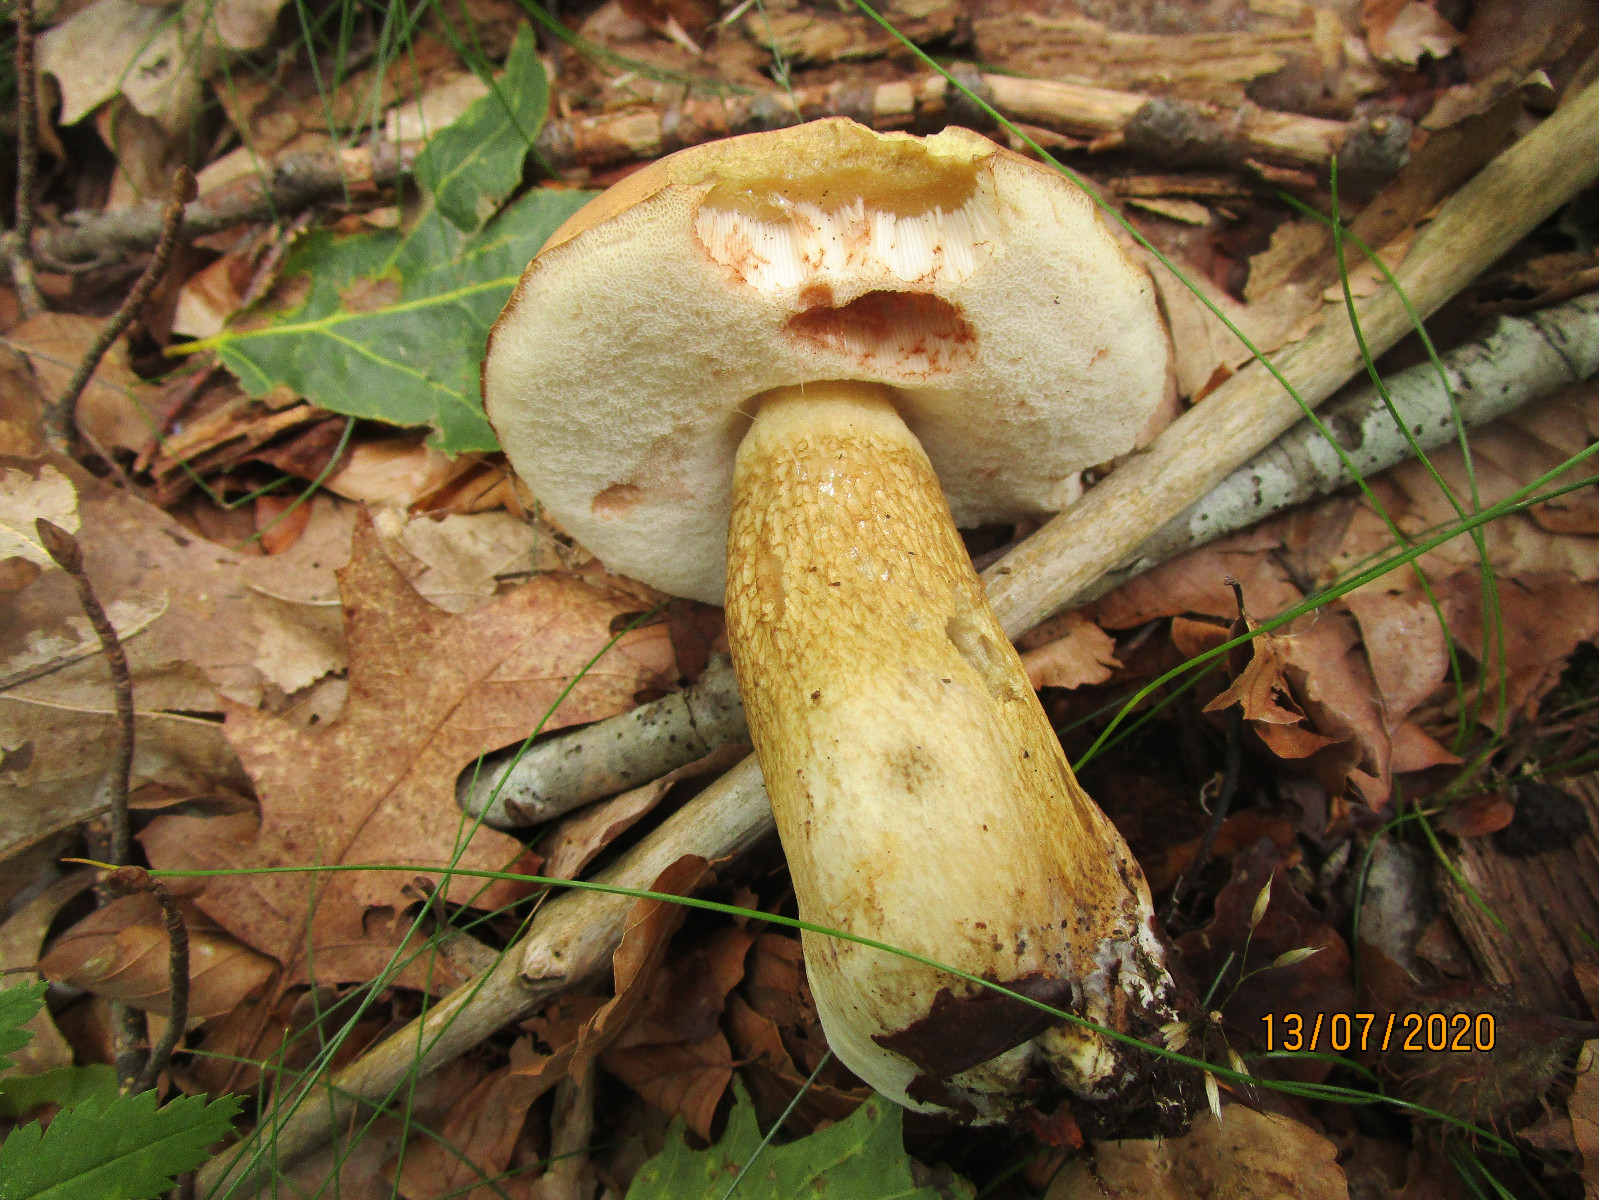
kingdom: Fungi
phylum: Basidiomycota
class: Agaricomycetes
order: Boletales
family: Boletaceae
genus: Tylopilus
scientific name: Tylopilus felleus
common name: galderørhat
